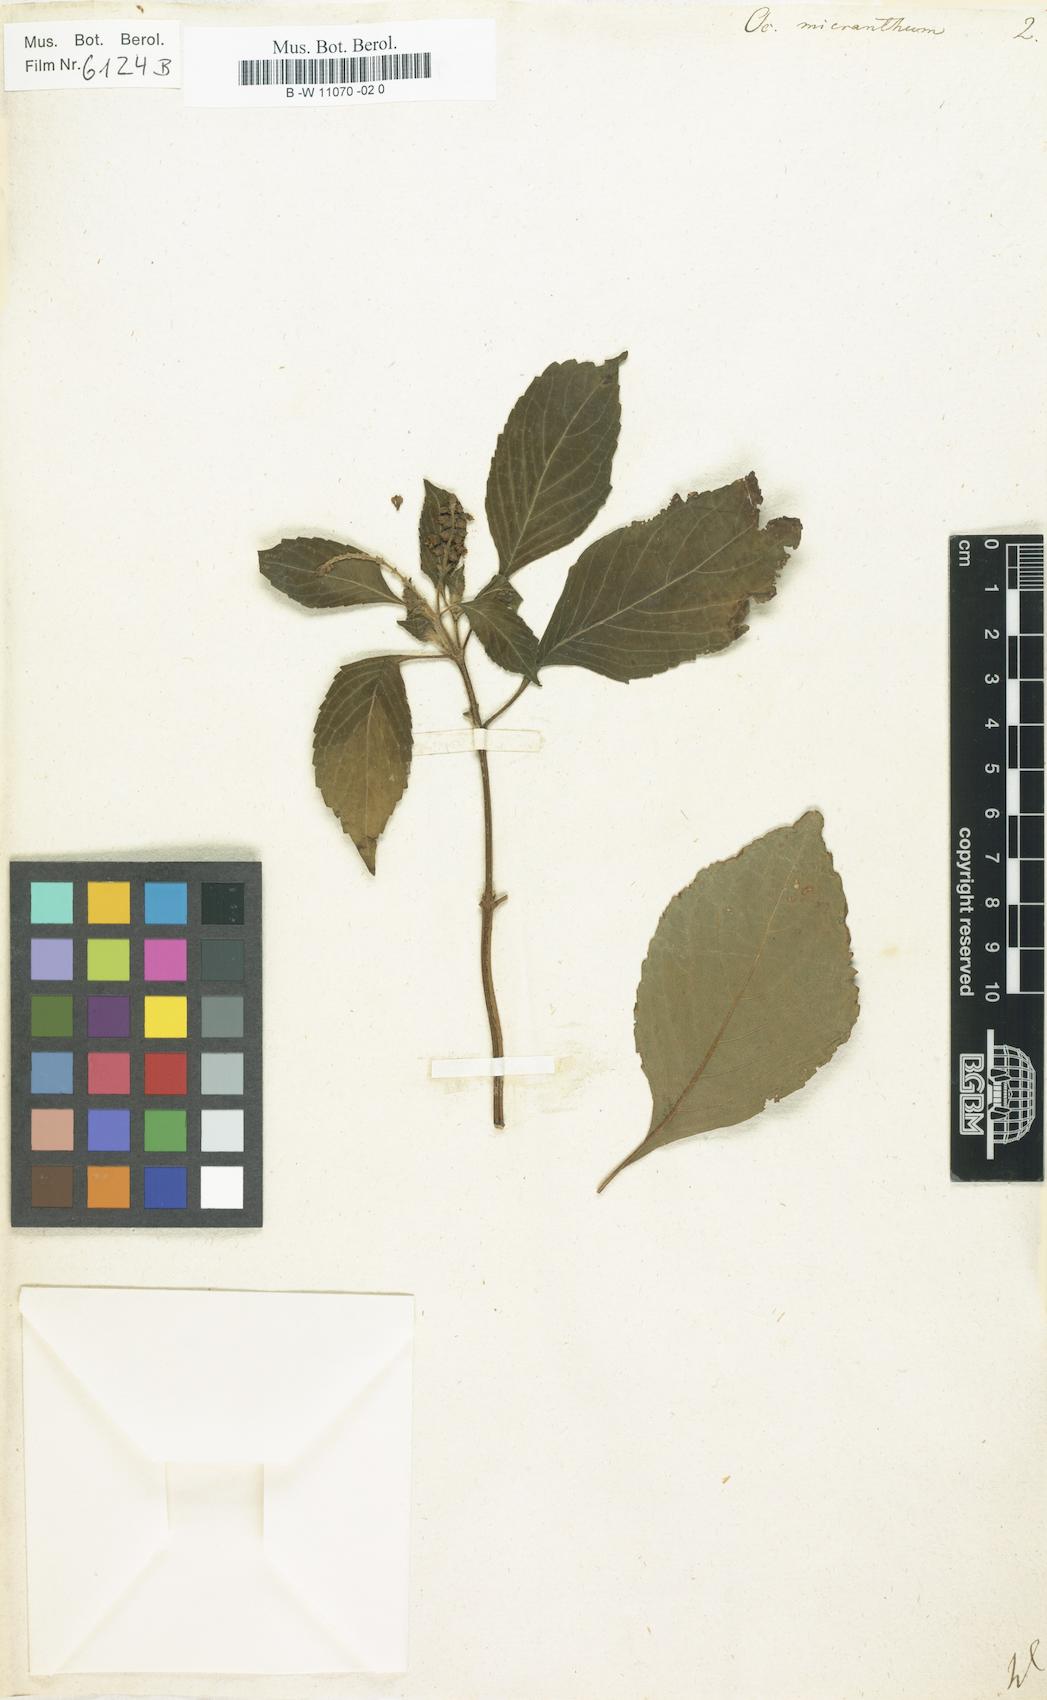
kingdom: Plantae
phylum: Tracheophyta
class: Magnoliopsida
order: Lamiales
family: Lamiaceae
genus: Ocimum
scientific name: Ocimum campechianum
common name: Mosquito basil
